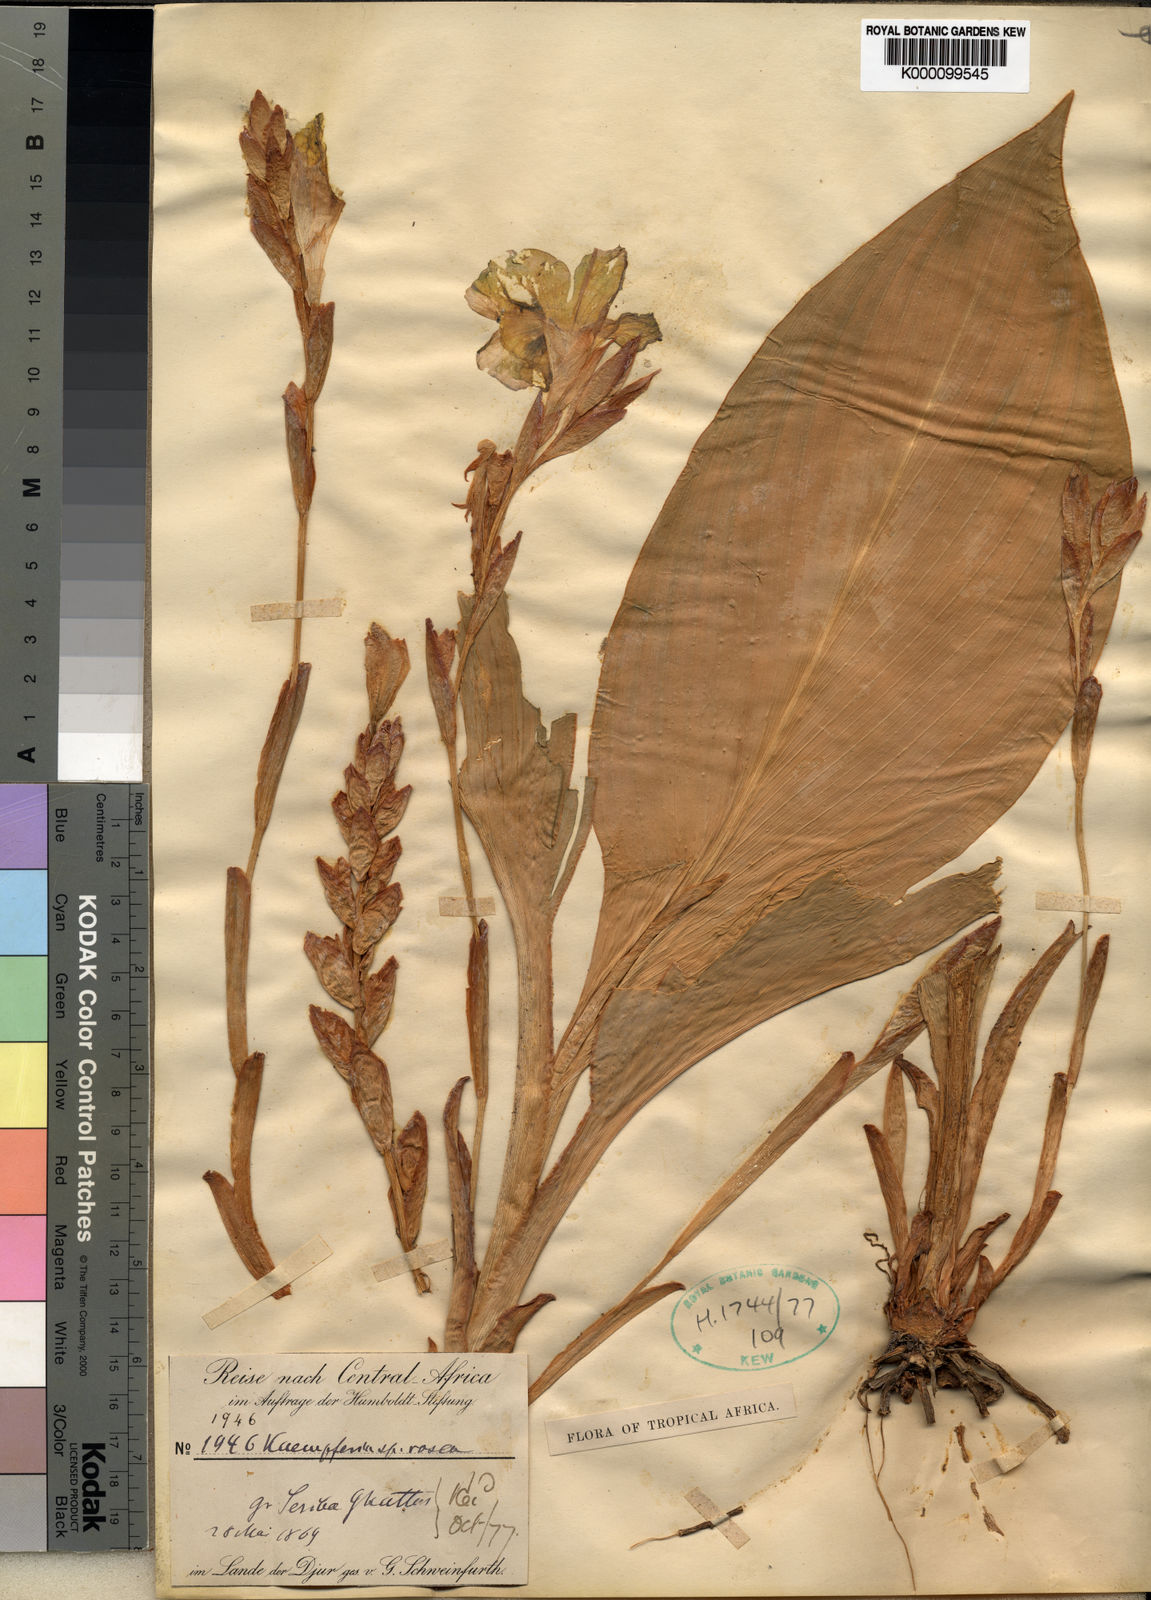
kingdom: Plantae
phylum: Tracheophyta
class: Liliopsida
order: Zingiberales
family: Zingiberaceae
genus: Kaempferia
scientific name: Kaempferia
